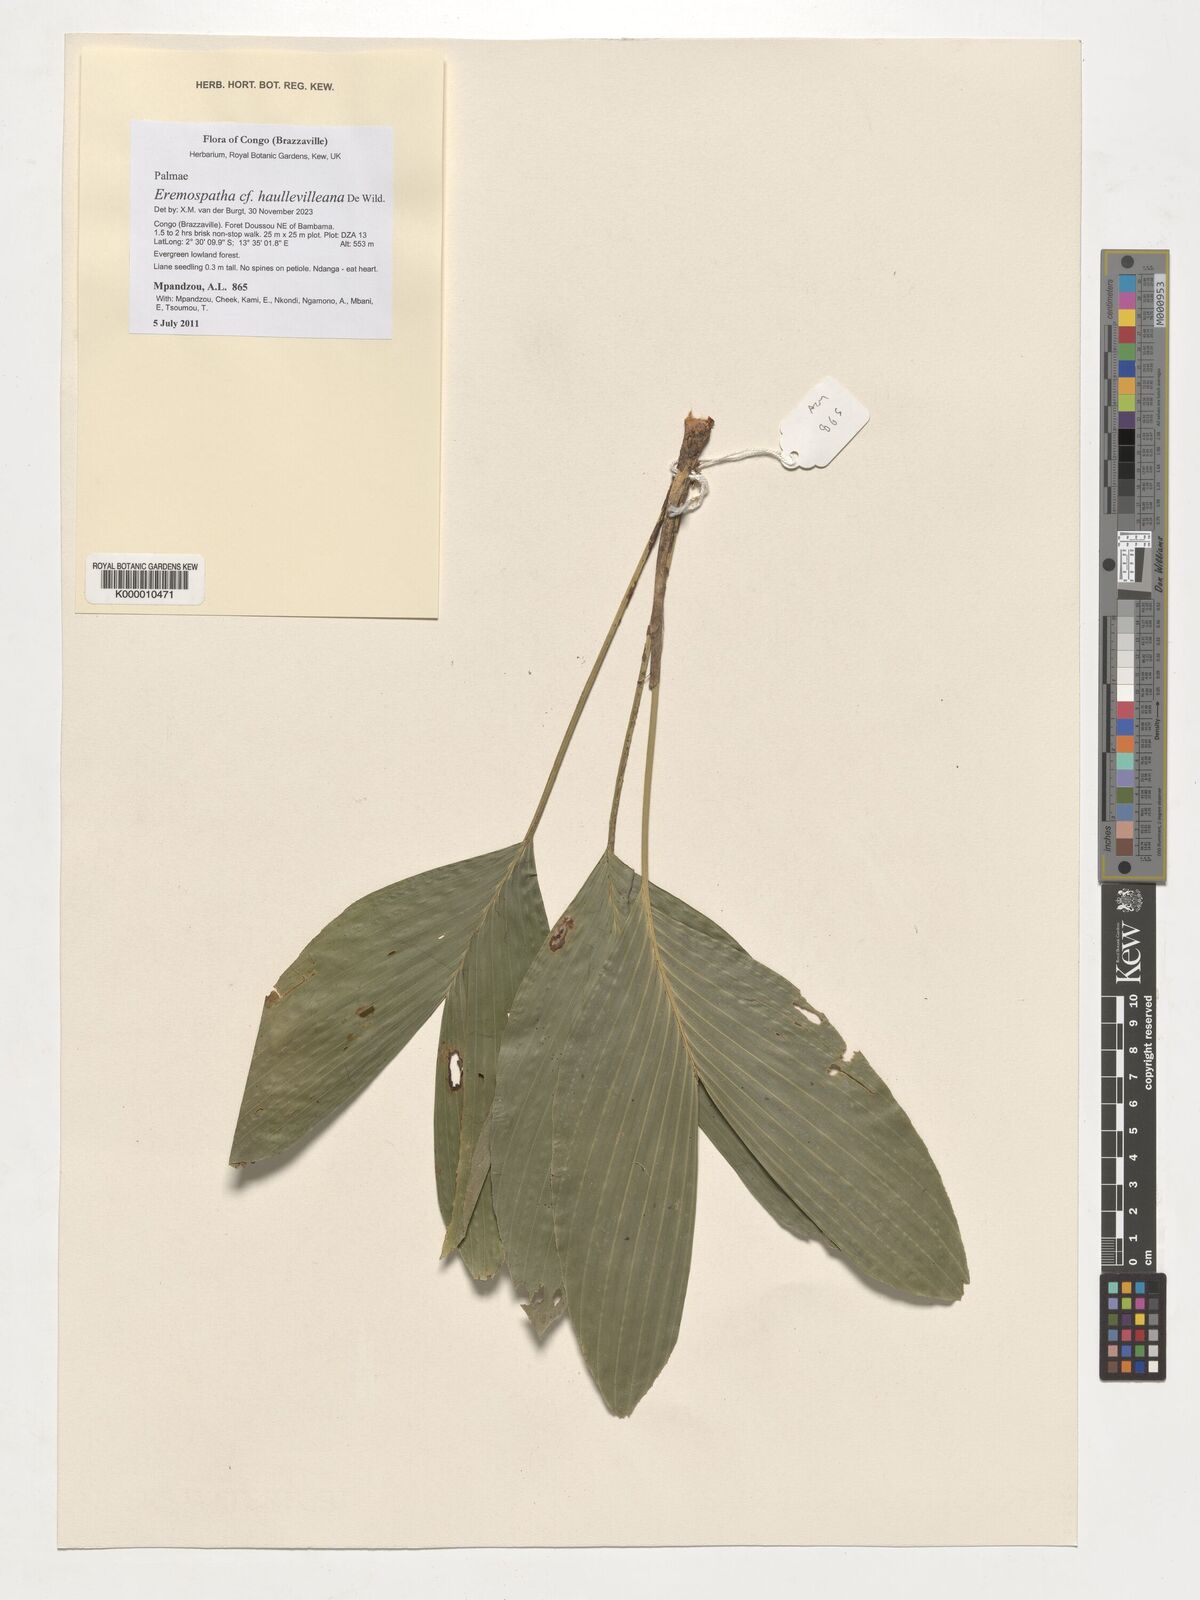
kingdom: Plantae
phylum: Tracheophyta
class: Liliopsida
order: Arecales
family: Arecaceae
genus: Eremospatha
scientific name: Eremospatha haullevilleana
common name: Rattan
